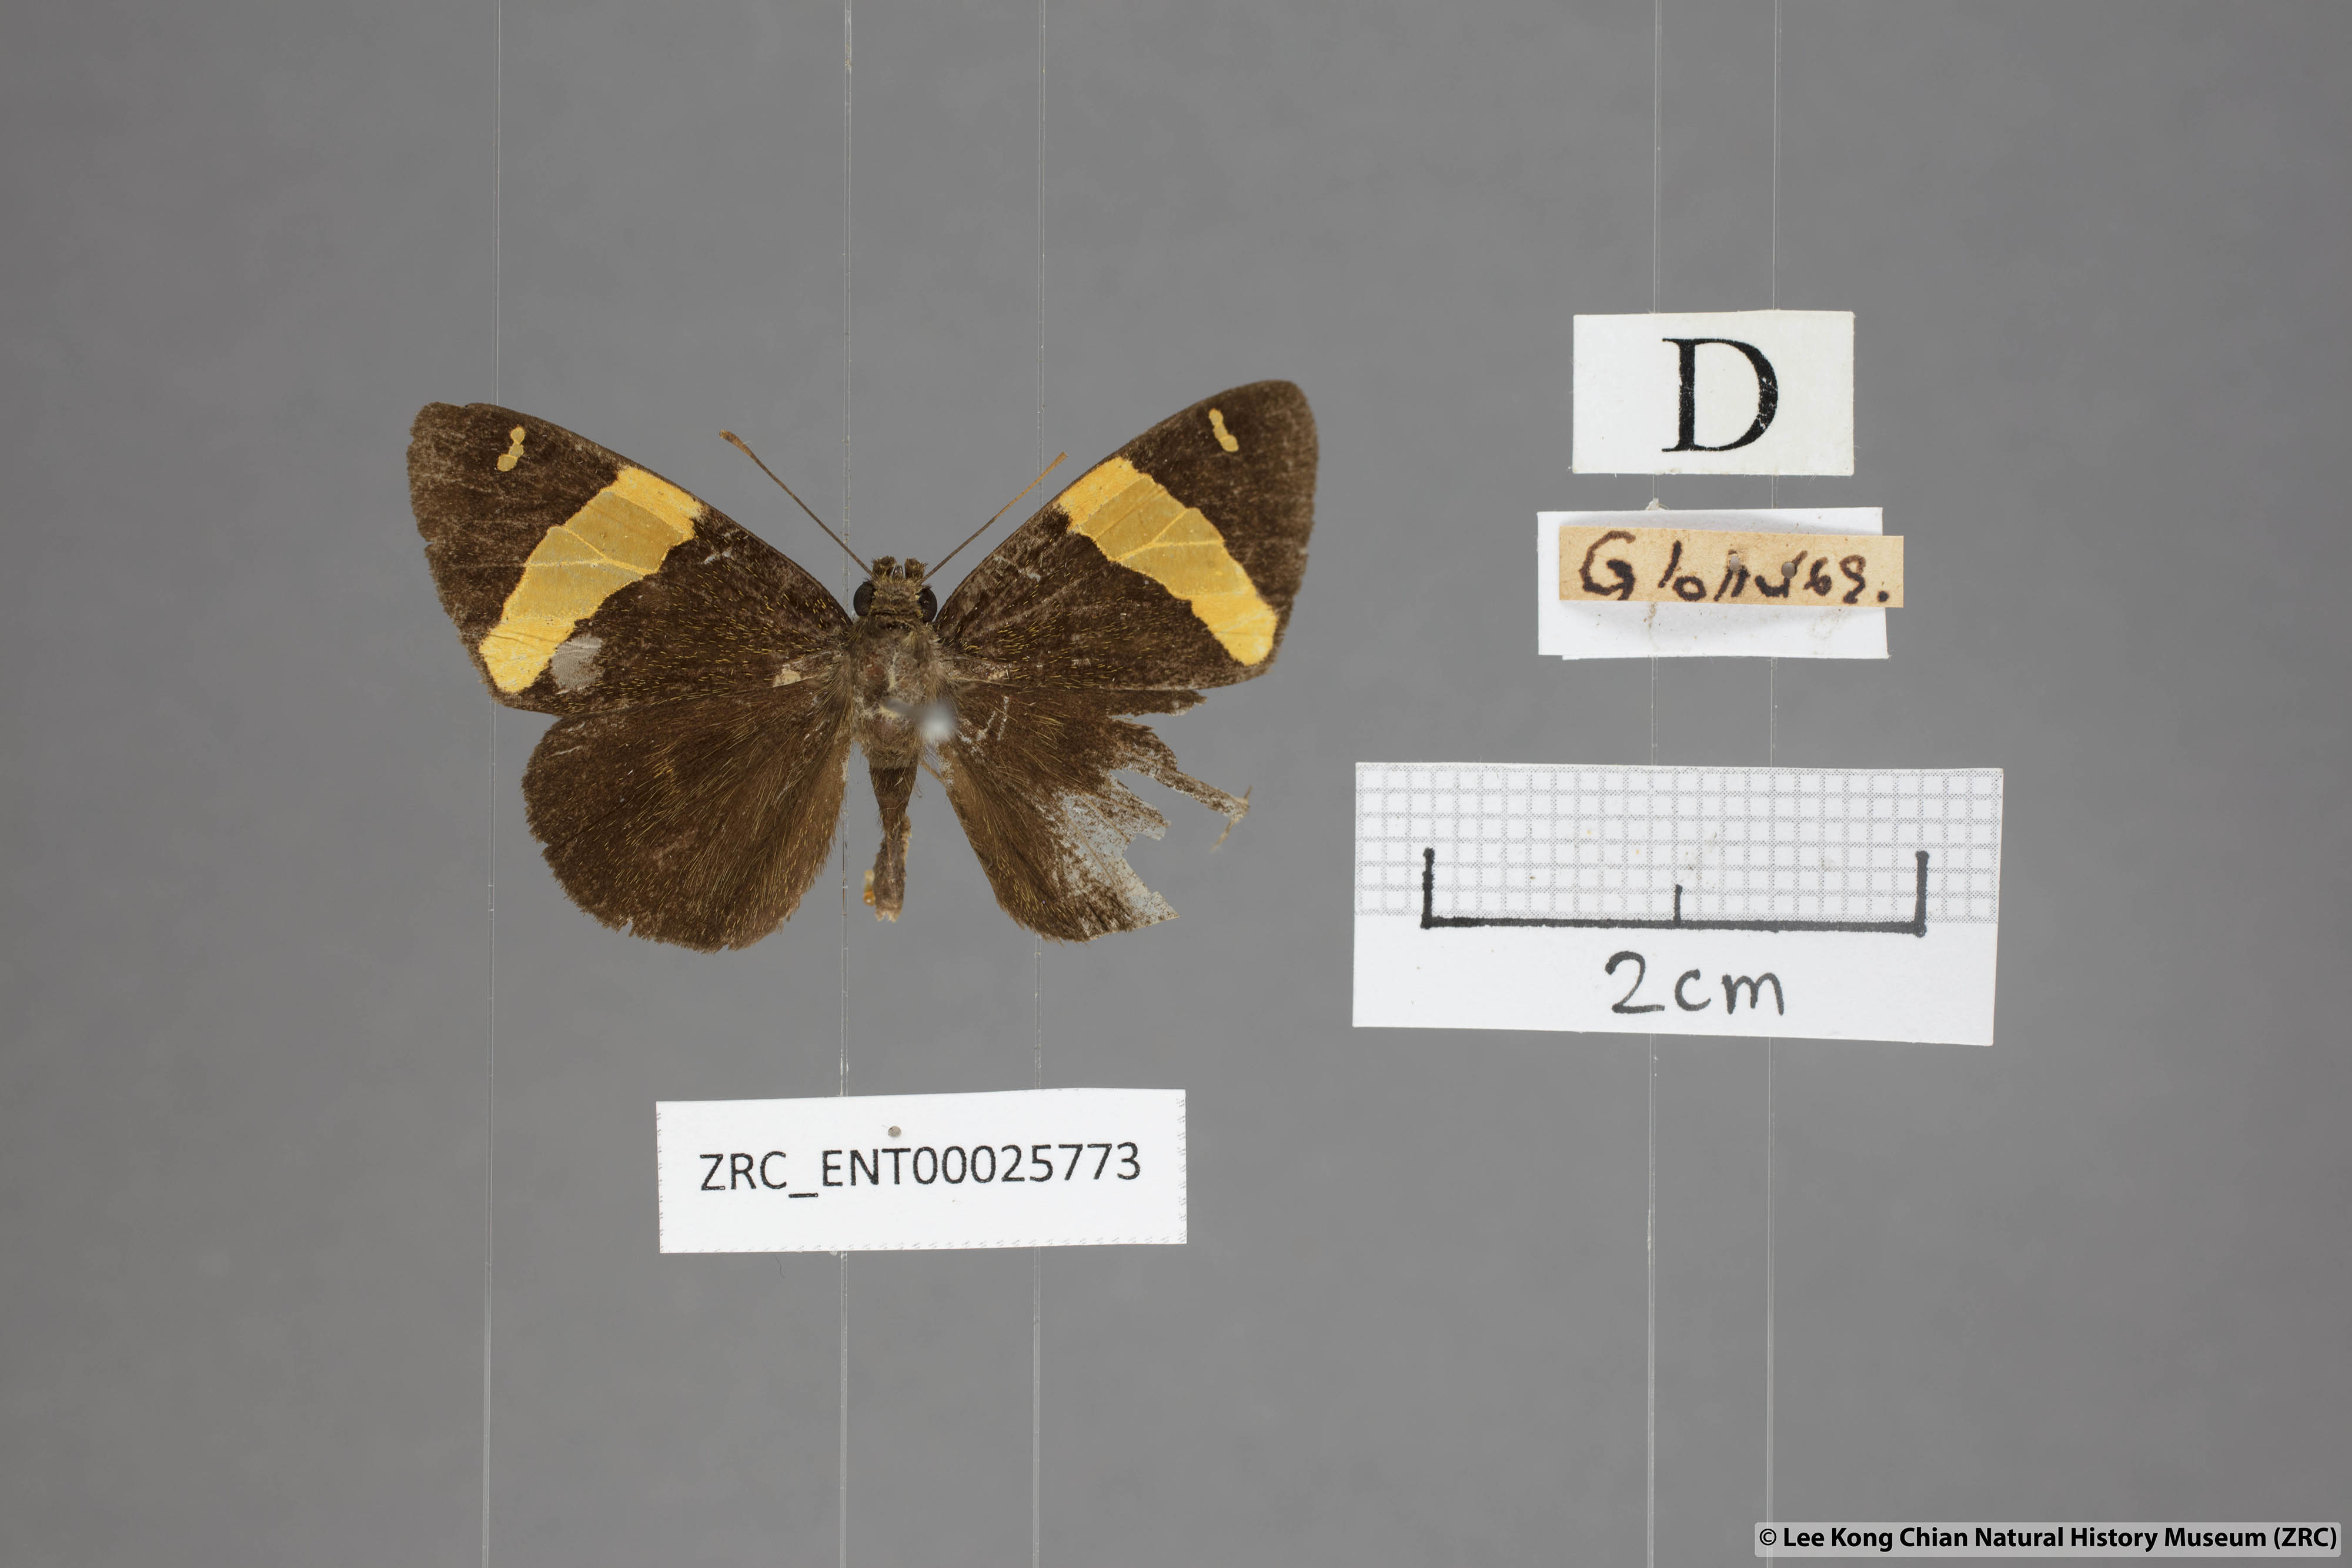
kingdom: Animalia
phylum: Arthropoda
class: Insecta
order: Lepidoptera
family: Hesperiidae
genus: Celaenorrhinus
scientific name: Celaenorrhinus aurivittata
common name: Dark yellow-banded flat
